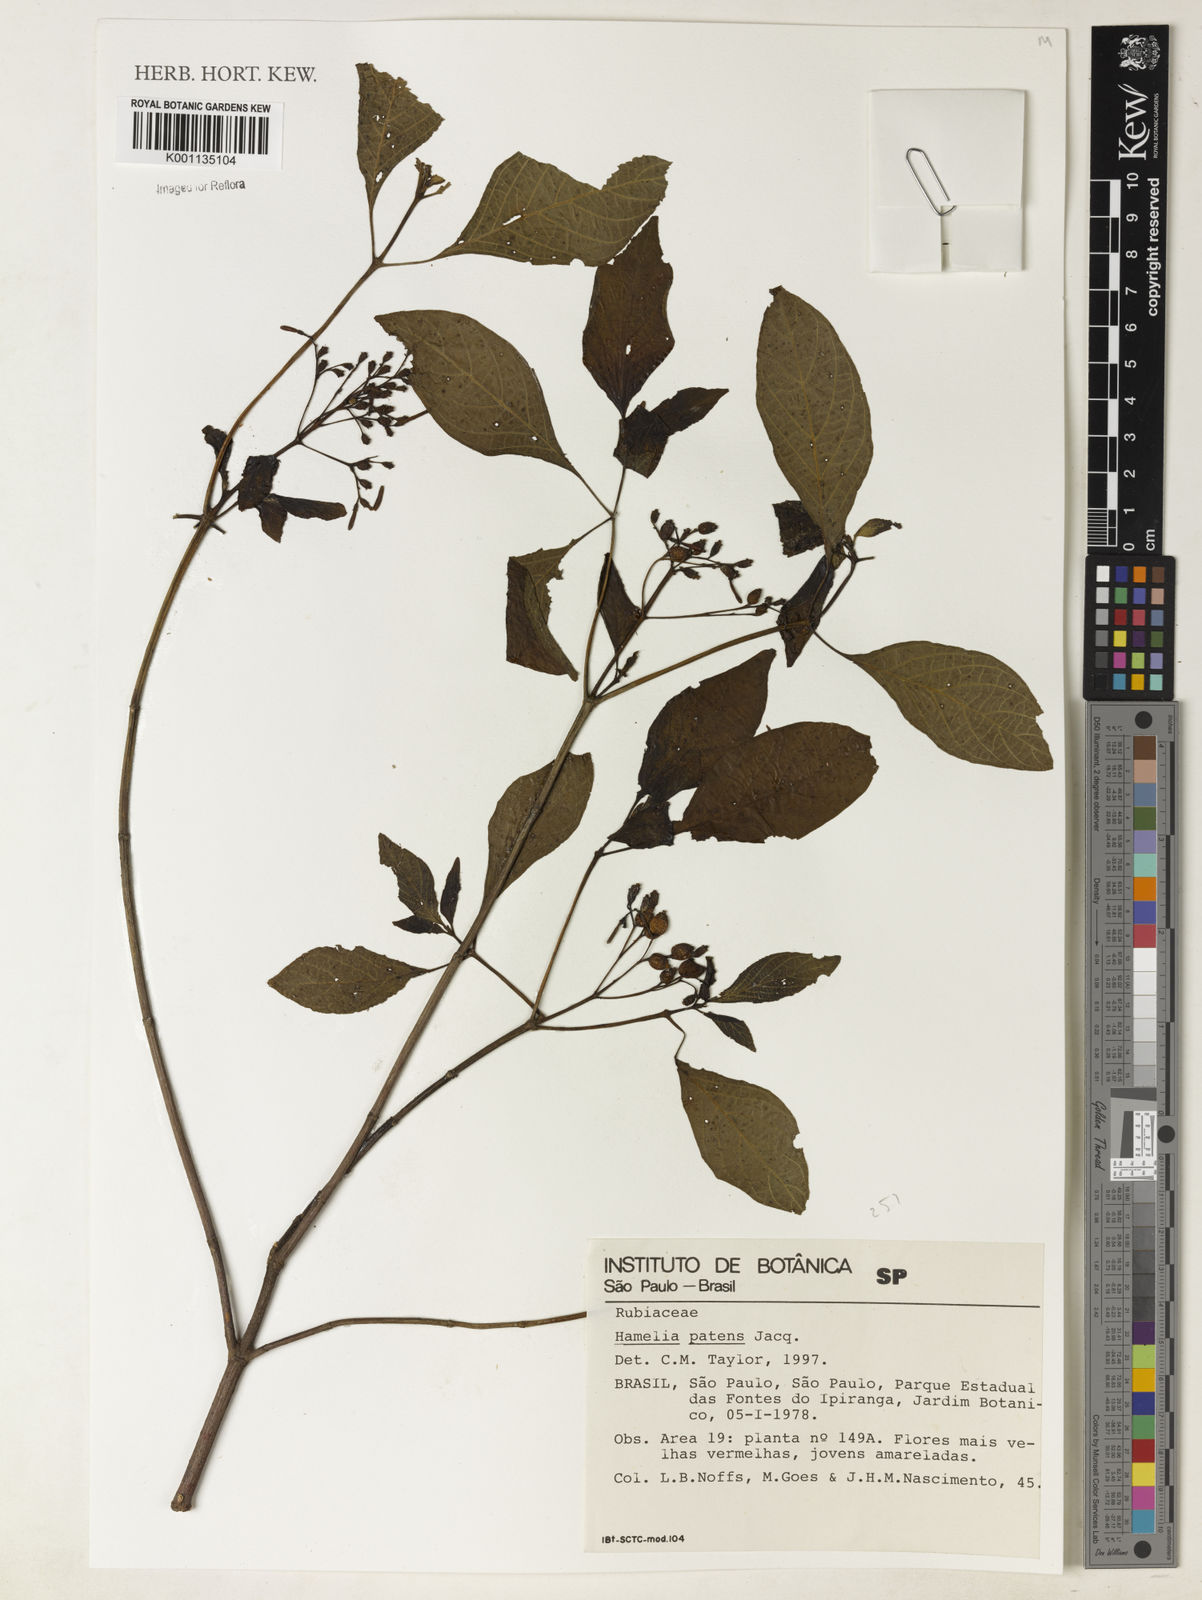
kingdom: Plantae
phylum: Tracheophyta
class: Magnoliopsida
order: Gentianales
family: Rubiaceae
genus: Hamelia
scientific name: Hamelia patens
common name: Redhead
